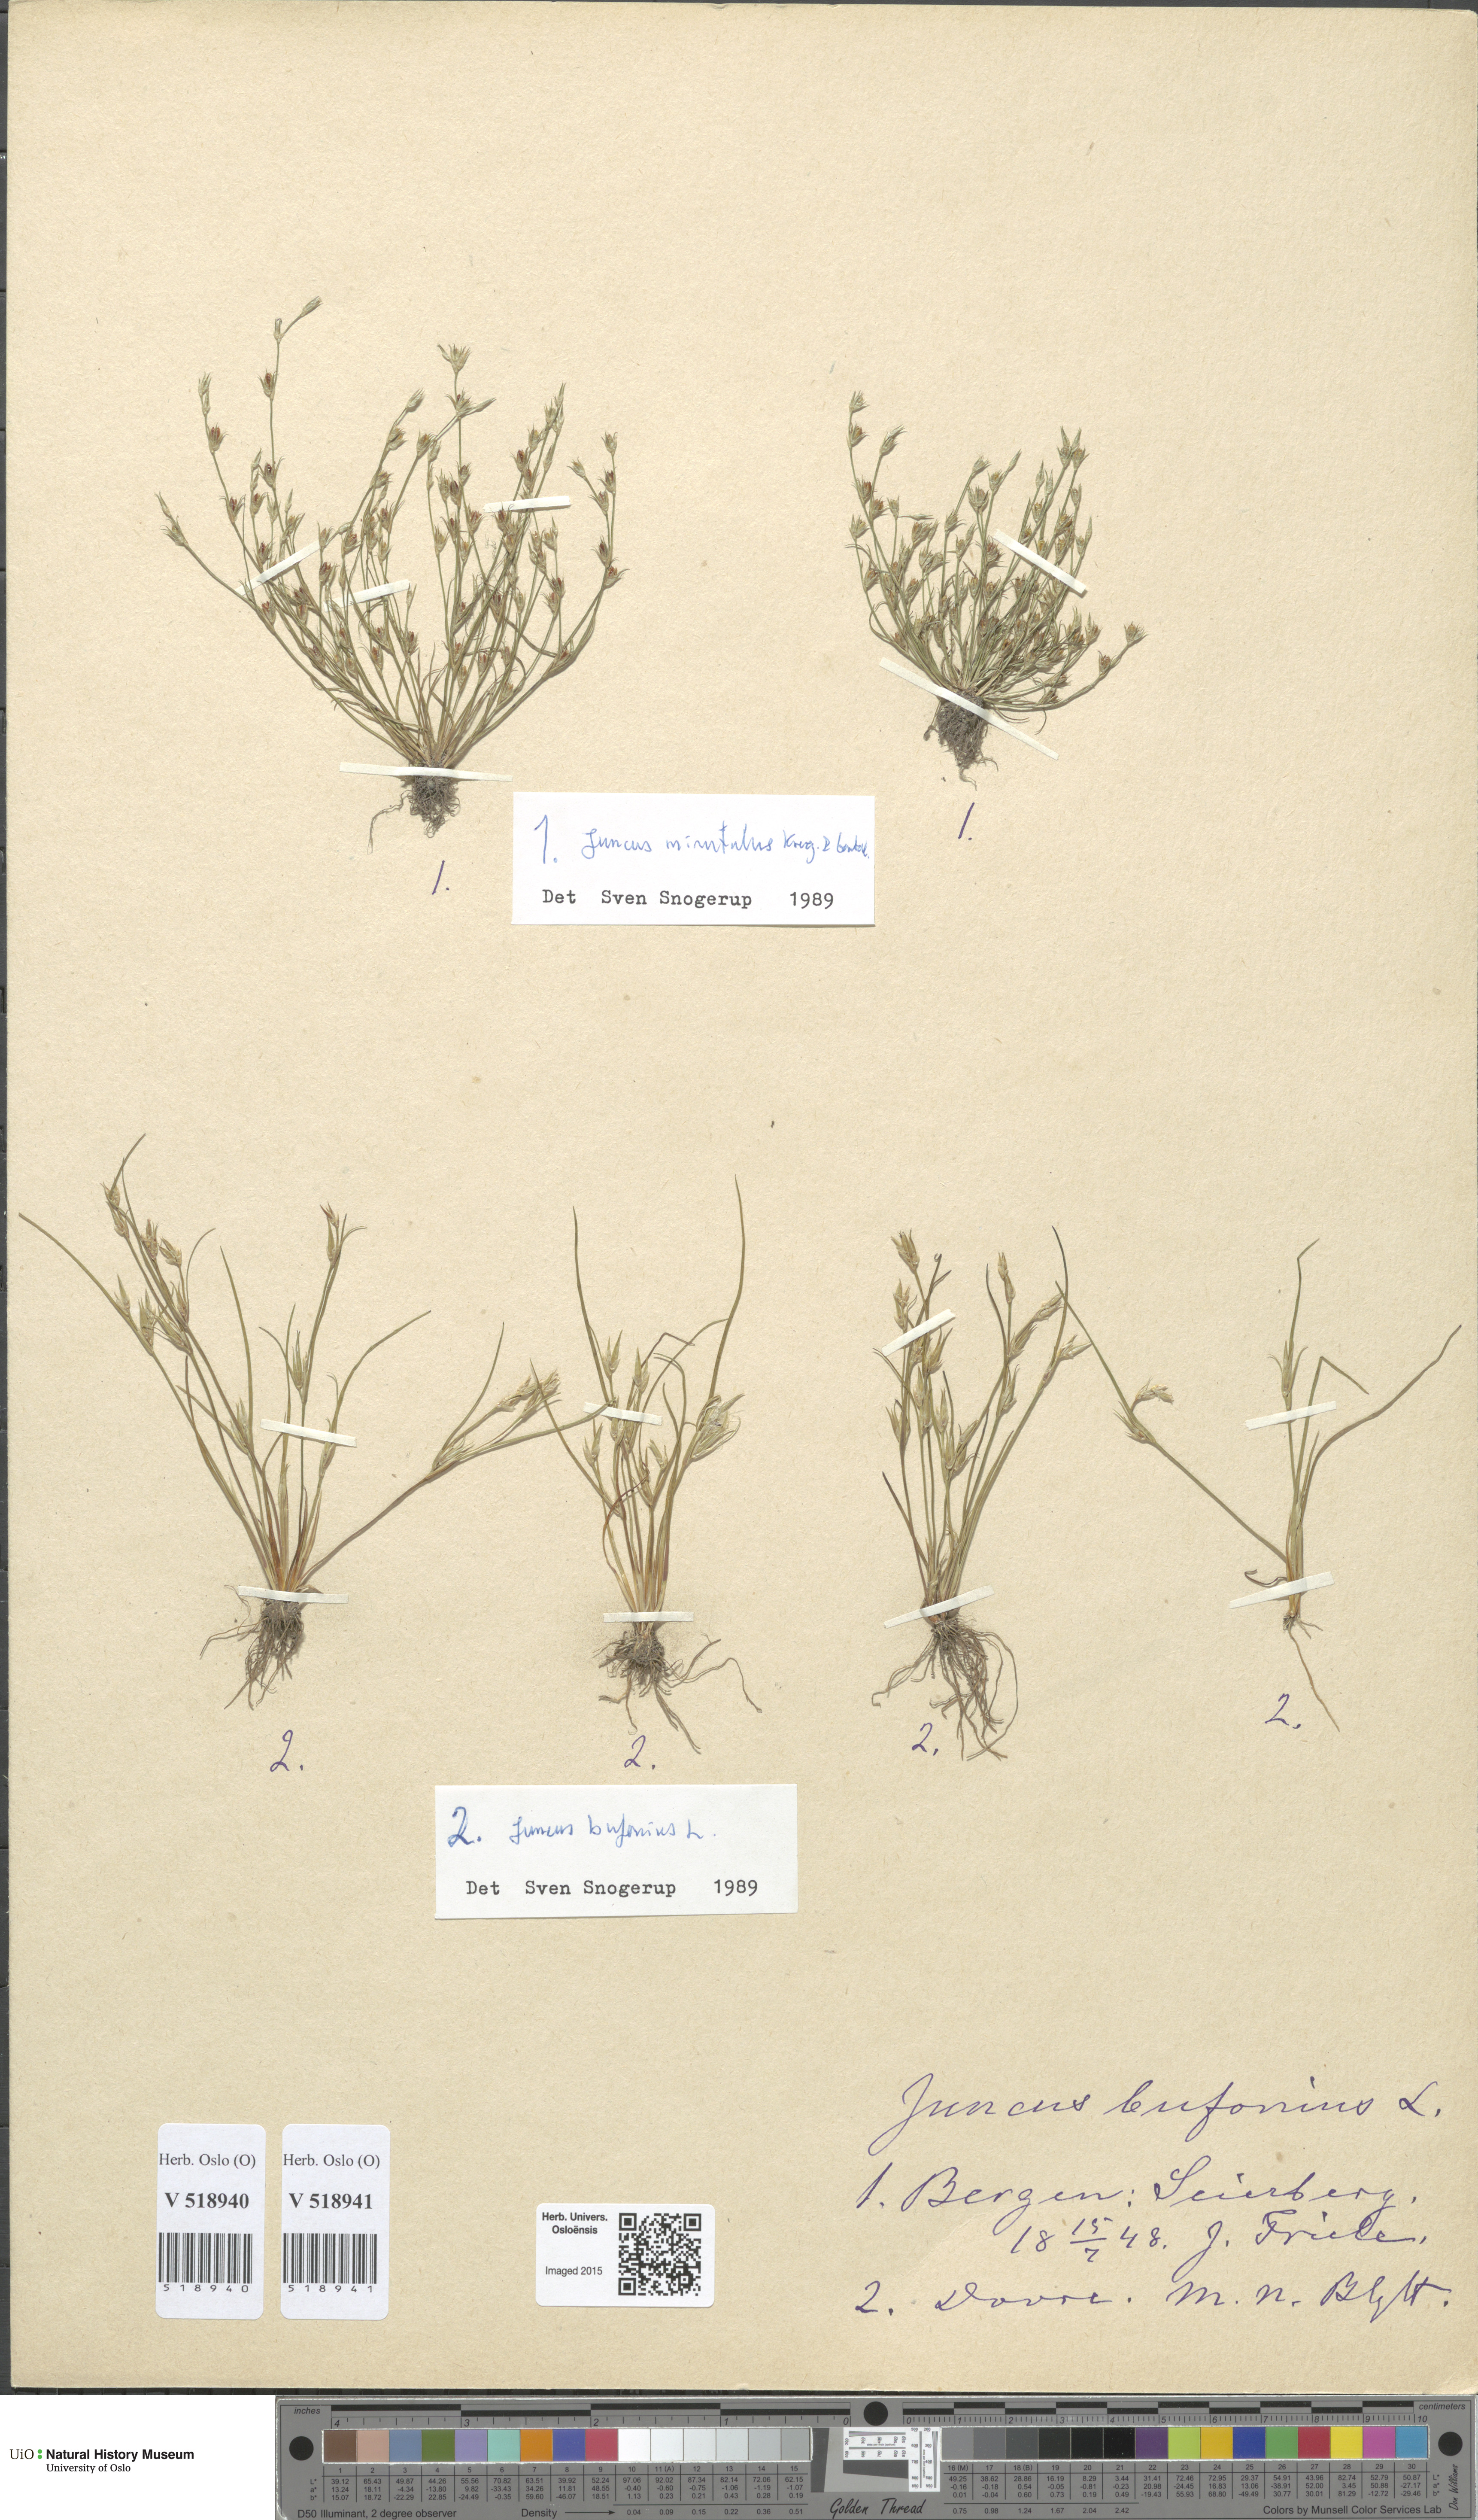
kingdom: Plantae
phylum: Tracheophyta
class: Liliopsida
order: Poales
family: Juncaceae
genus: Juncus
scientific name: Juncus bufonius
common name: Toad rush
